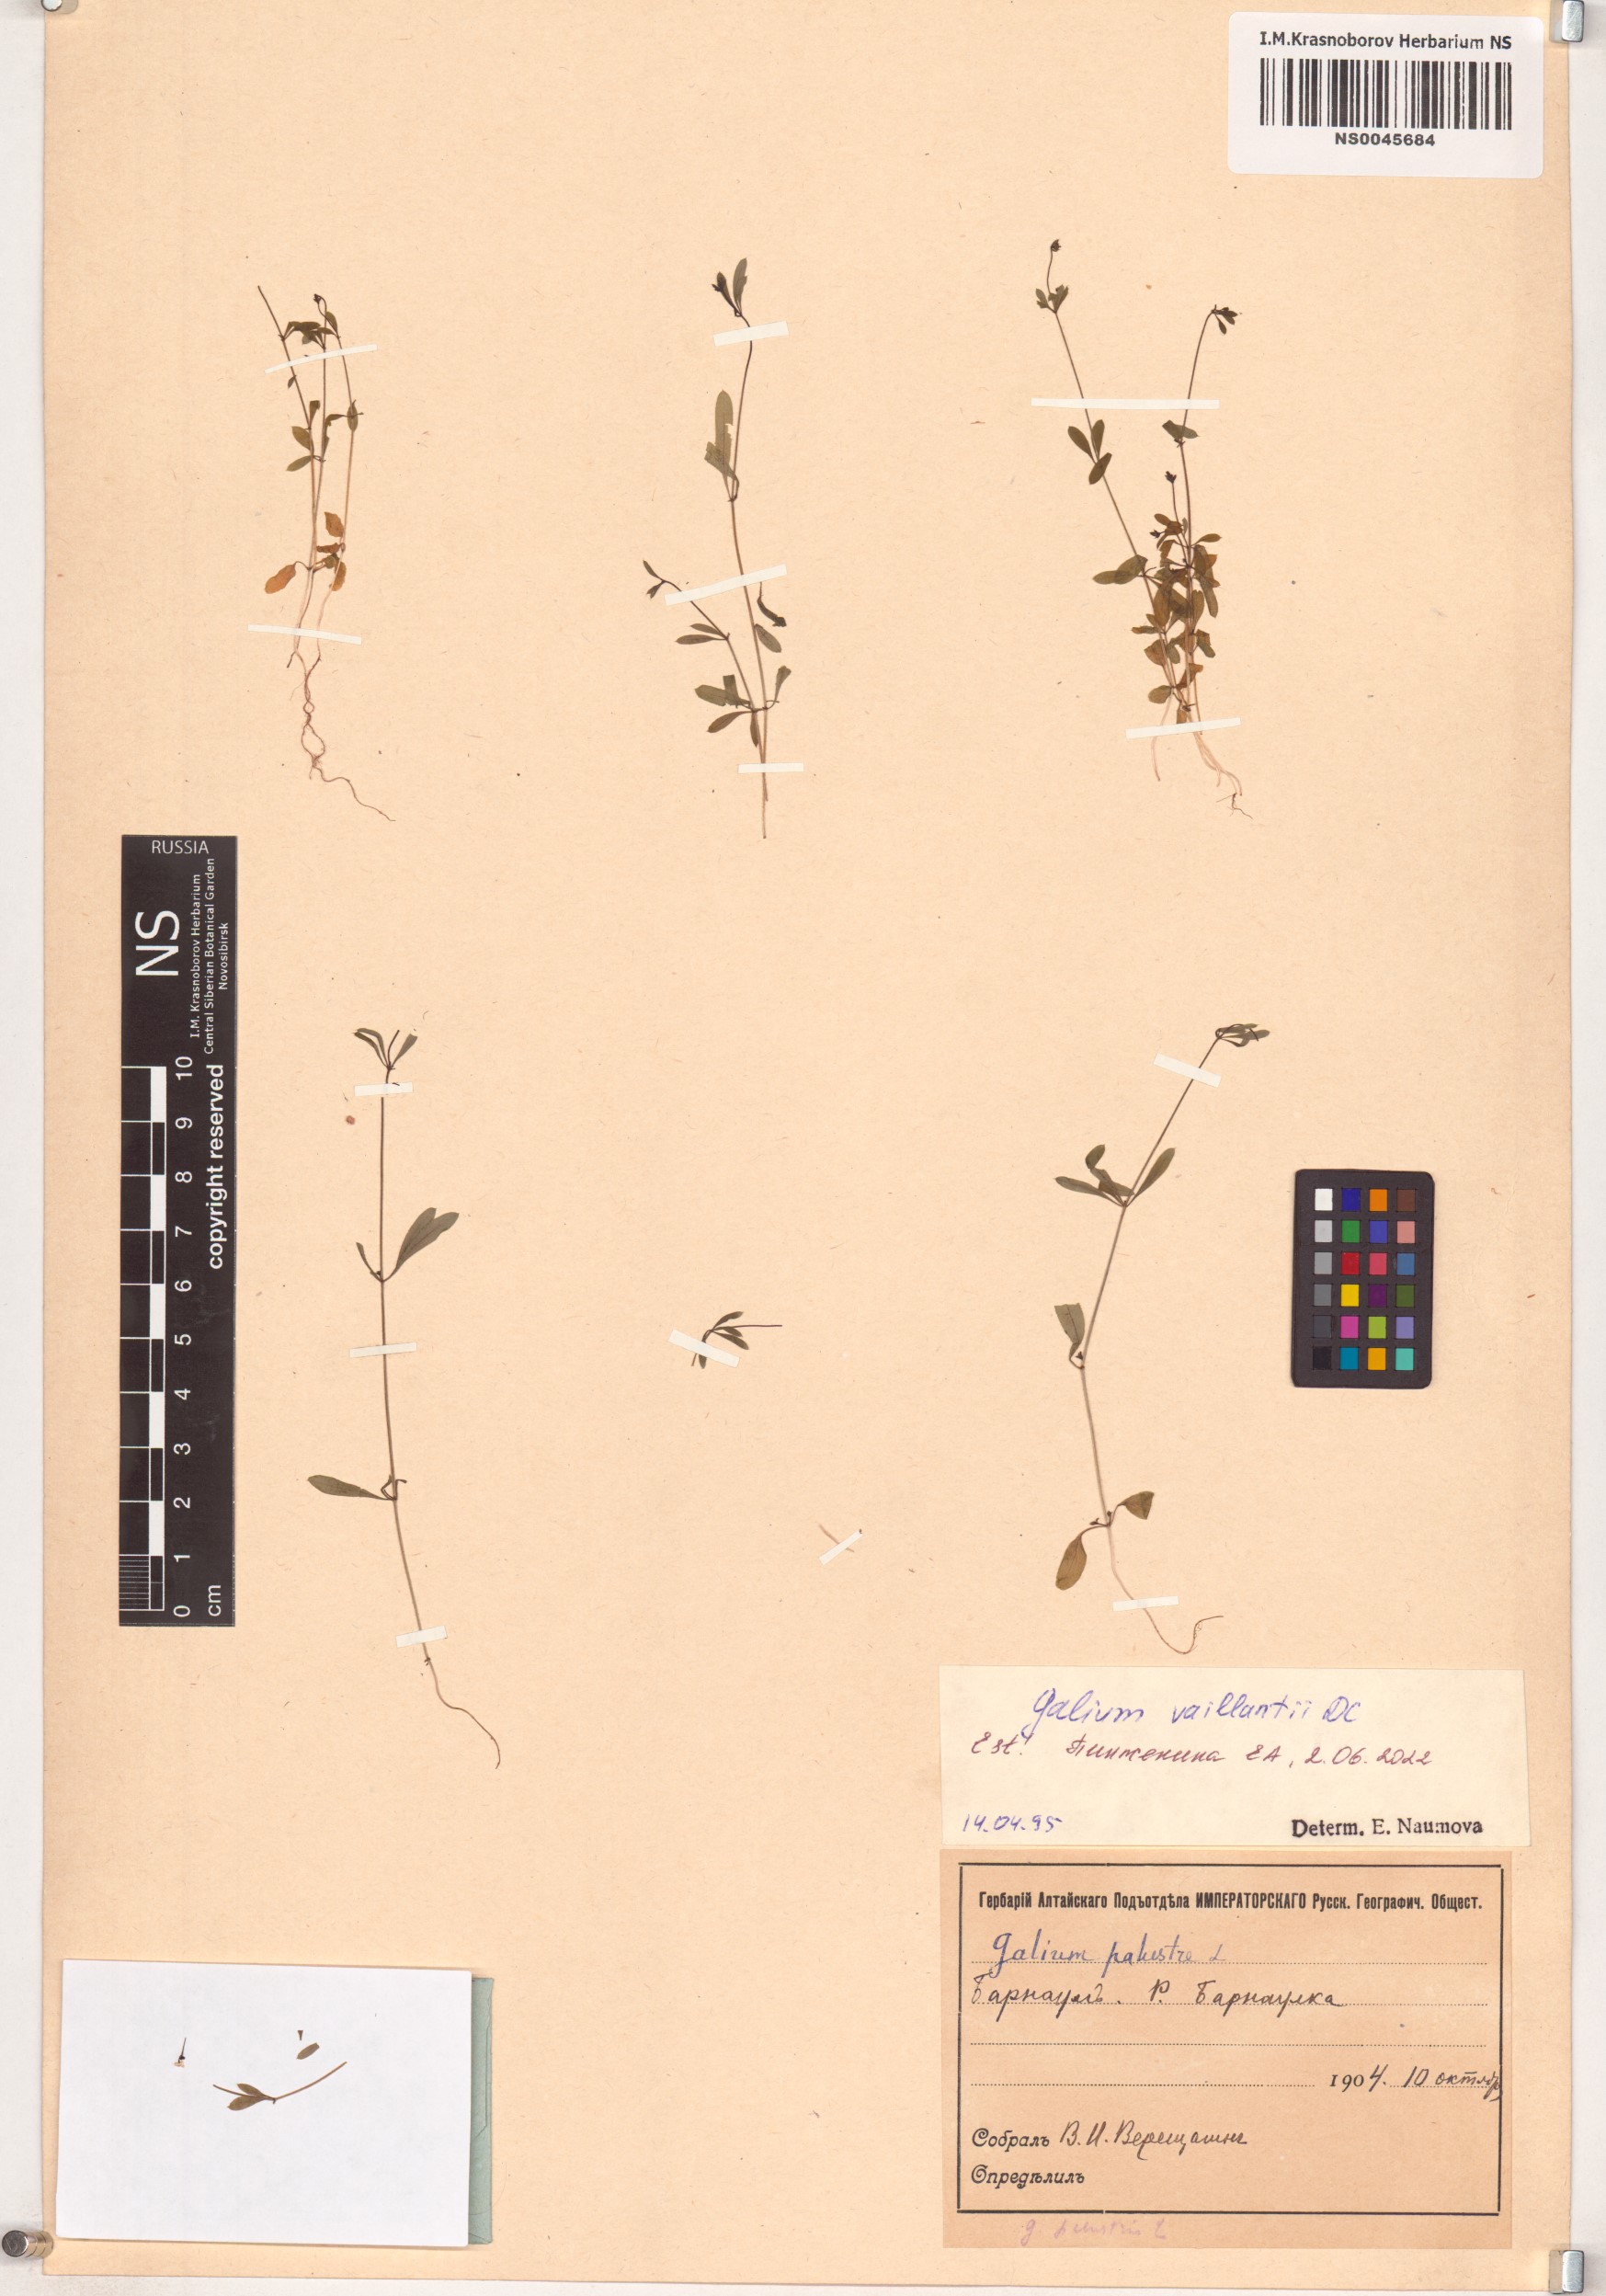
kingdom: Plantae
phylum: Tracheophyta
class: Magnoliopsida
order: Gentianales
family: Rubiaceae
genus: Galium
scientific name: Galium spurium
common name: False cleavers
